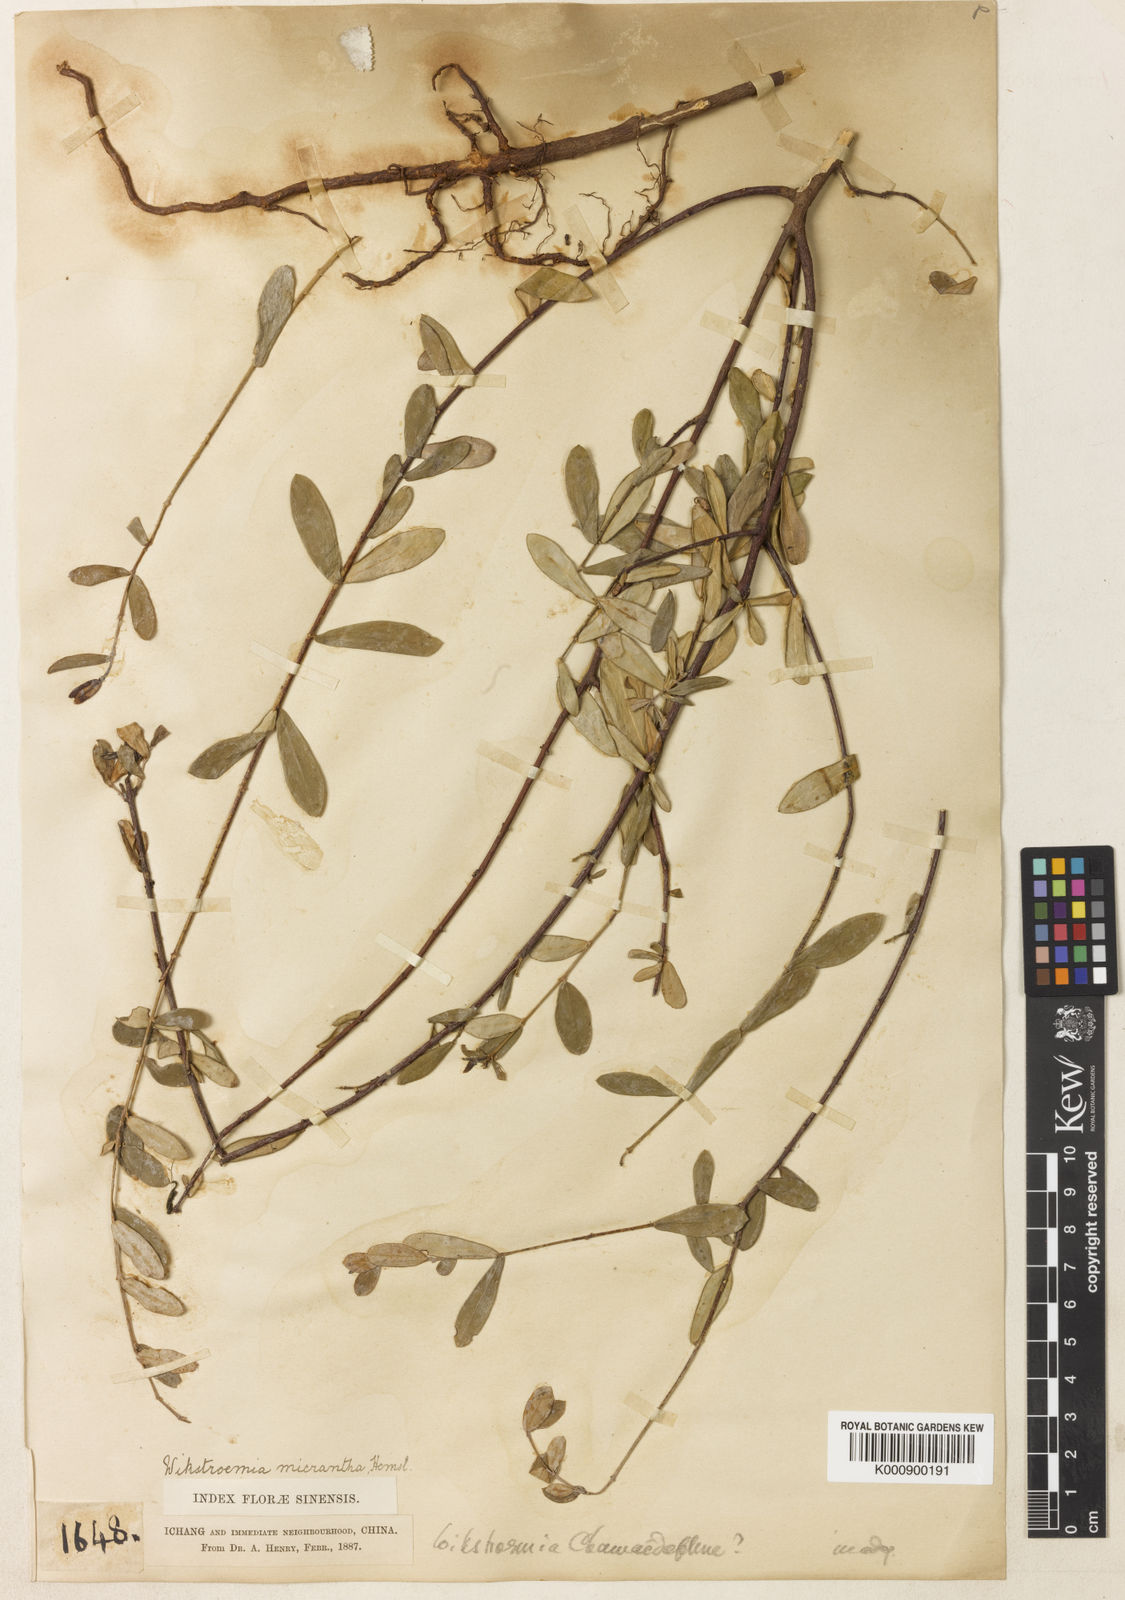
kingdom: Plantae
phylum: Tracheophyta
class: Magnoliopsida
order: Malvales
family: Thymelaeaceae
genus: Wikstroemia
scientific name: Wikstroemia chamaedaphne
